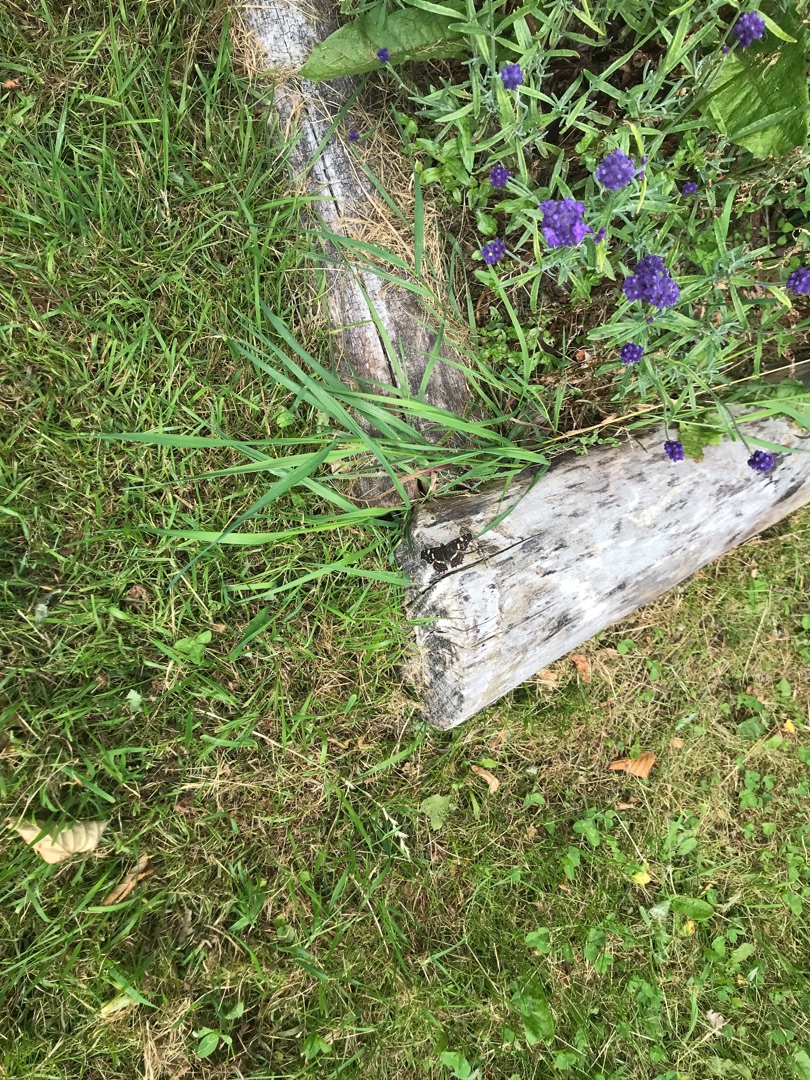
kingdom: Animalia
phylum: Arthropoda
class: Insecta
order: Lepidoptera
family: Nymphalidae
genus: Araschnia
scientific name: Araschnia levana
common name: Nældesommerfugl
